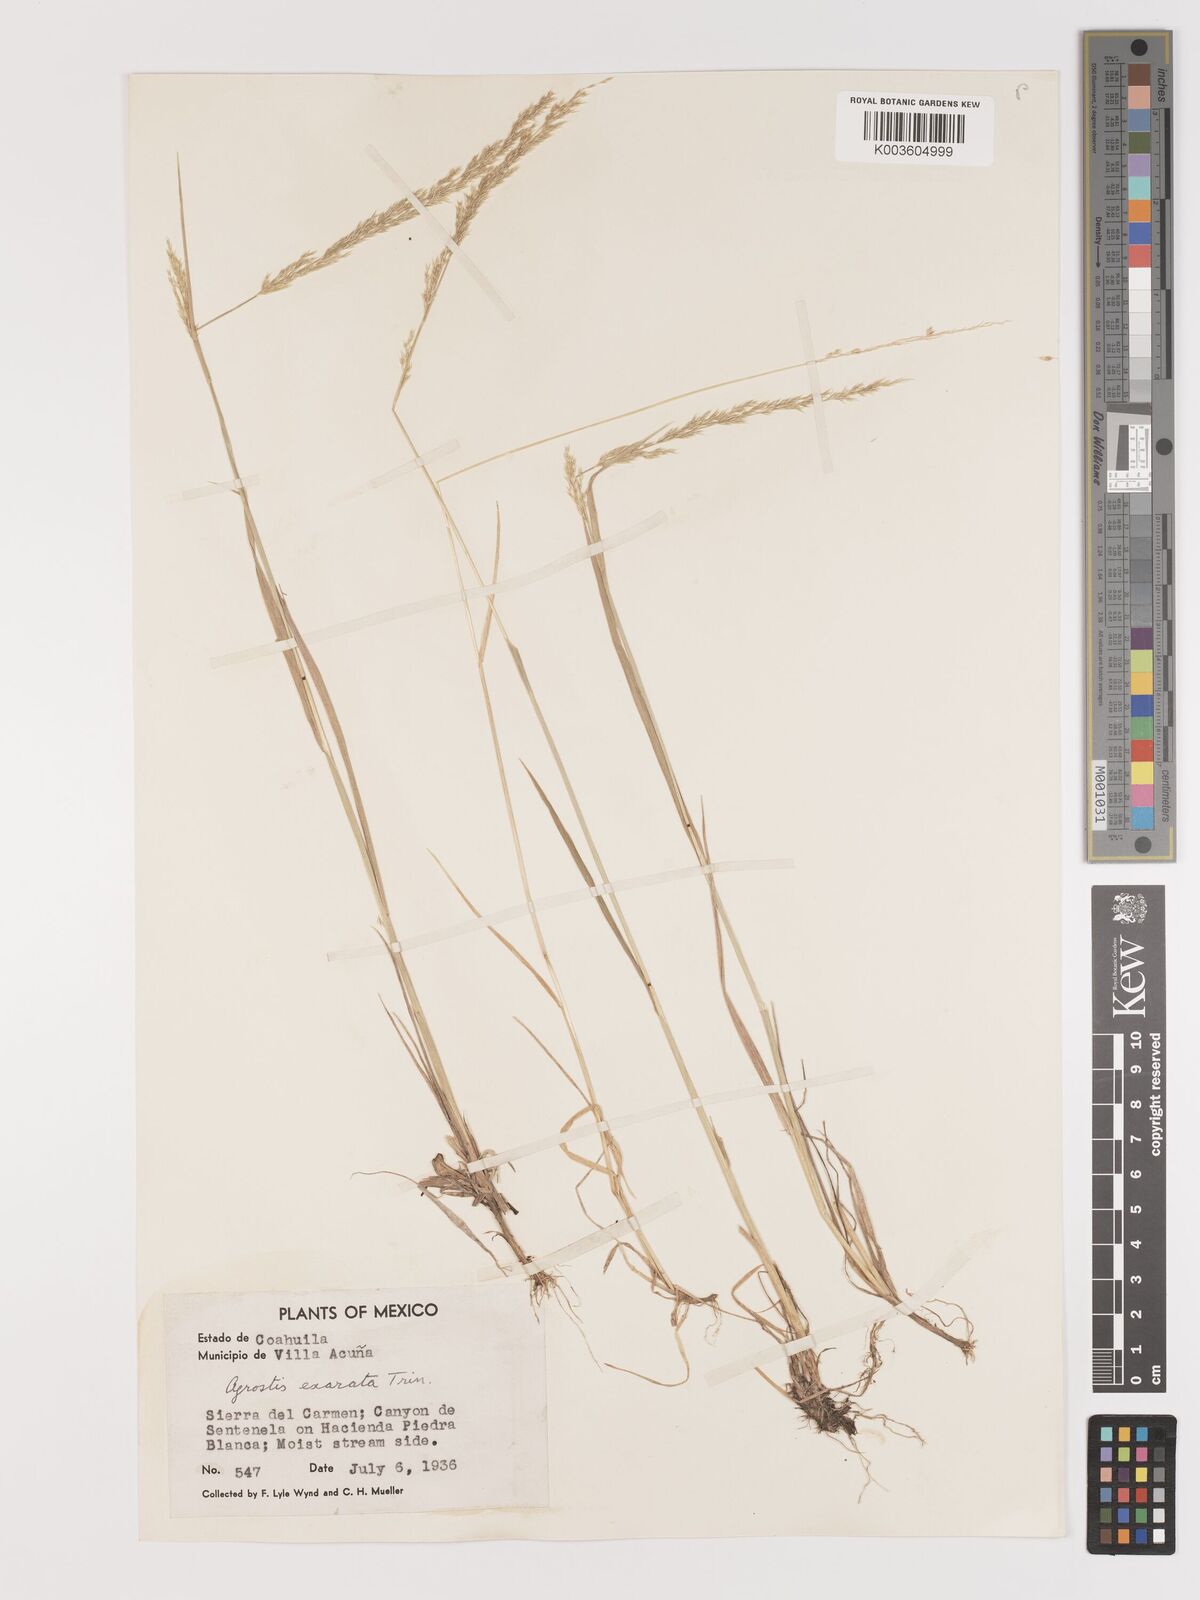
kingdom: Plantae
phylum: Tracheophyta
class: Liliopsida
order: Poales
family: Poaceae
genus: Agrostis
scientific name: Agrostis exarata
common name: Spike bent
